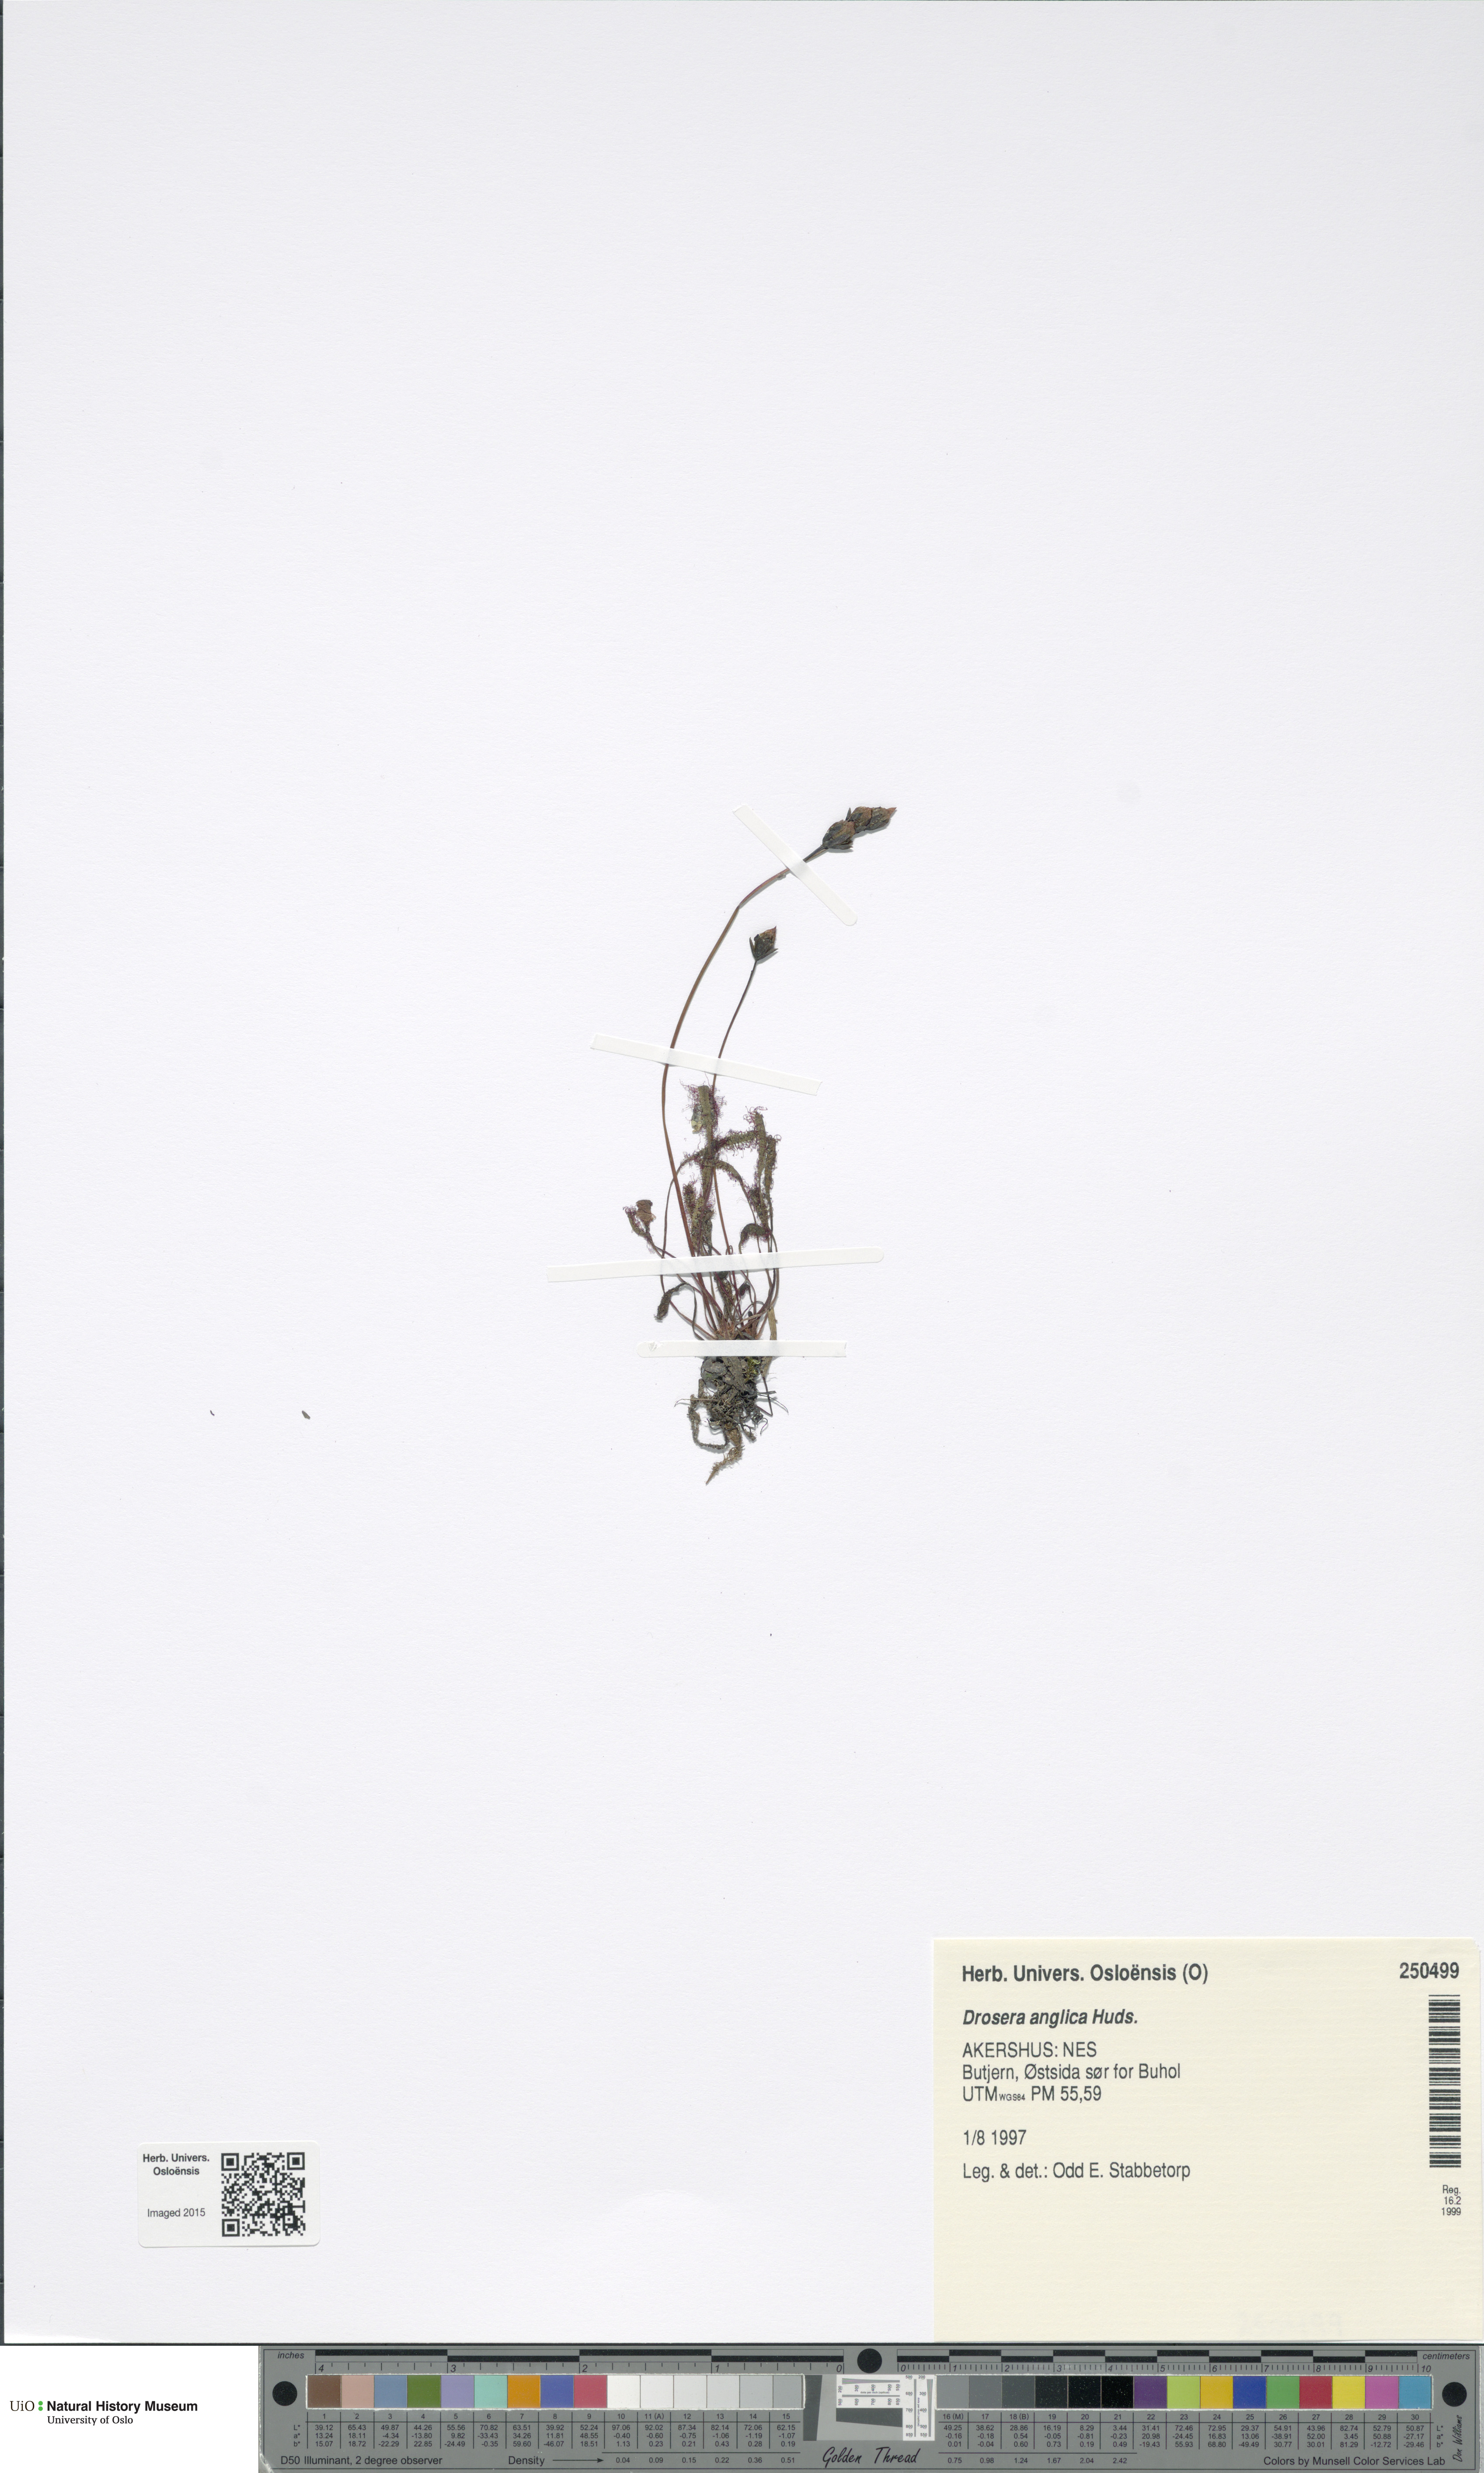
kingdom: Plantae
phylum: Tracheophyta
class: Magnoliopsida
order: Caryophyllales
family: Droseraceae
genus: Drosera
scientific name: Drosera anglica
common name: Great sundew
